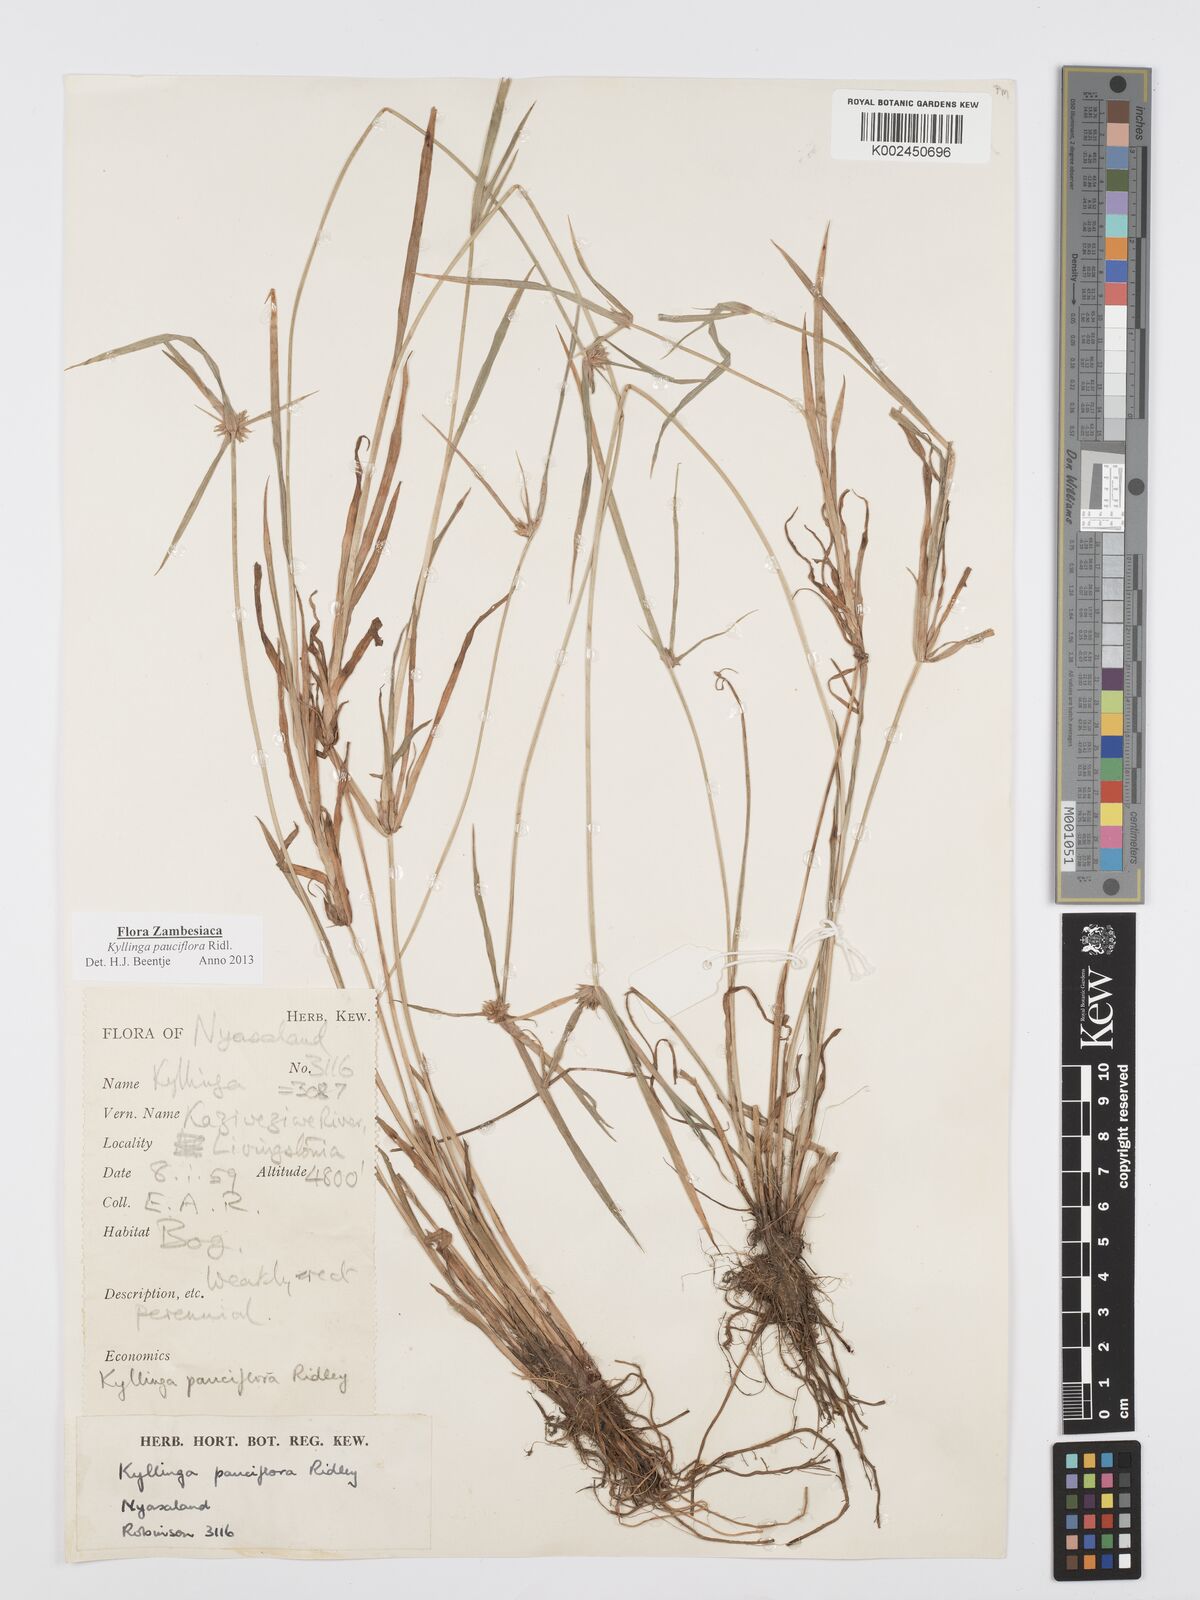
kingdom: Plantae
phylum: Tracheophyta
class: Liliopsida
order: Poales
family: Cyperaceae
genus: Cyperus
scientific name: Cyperus
